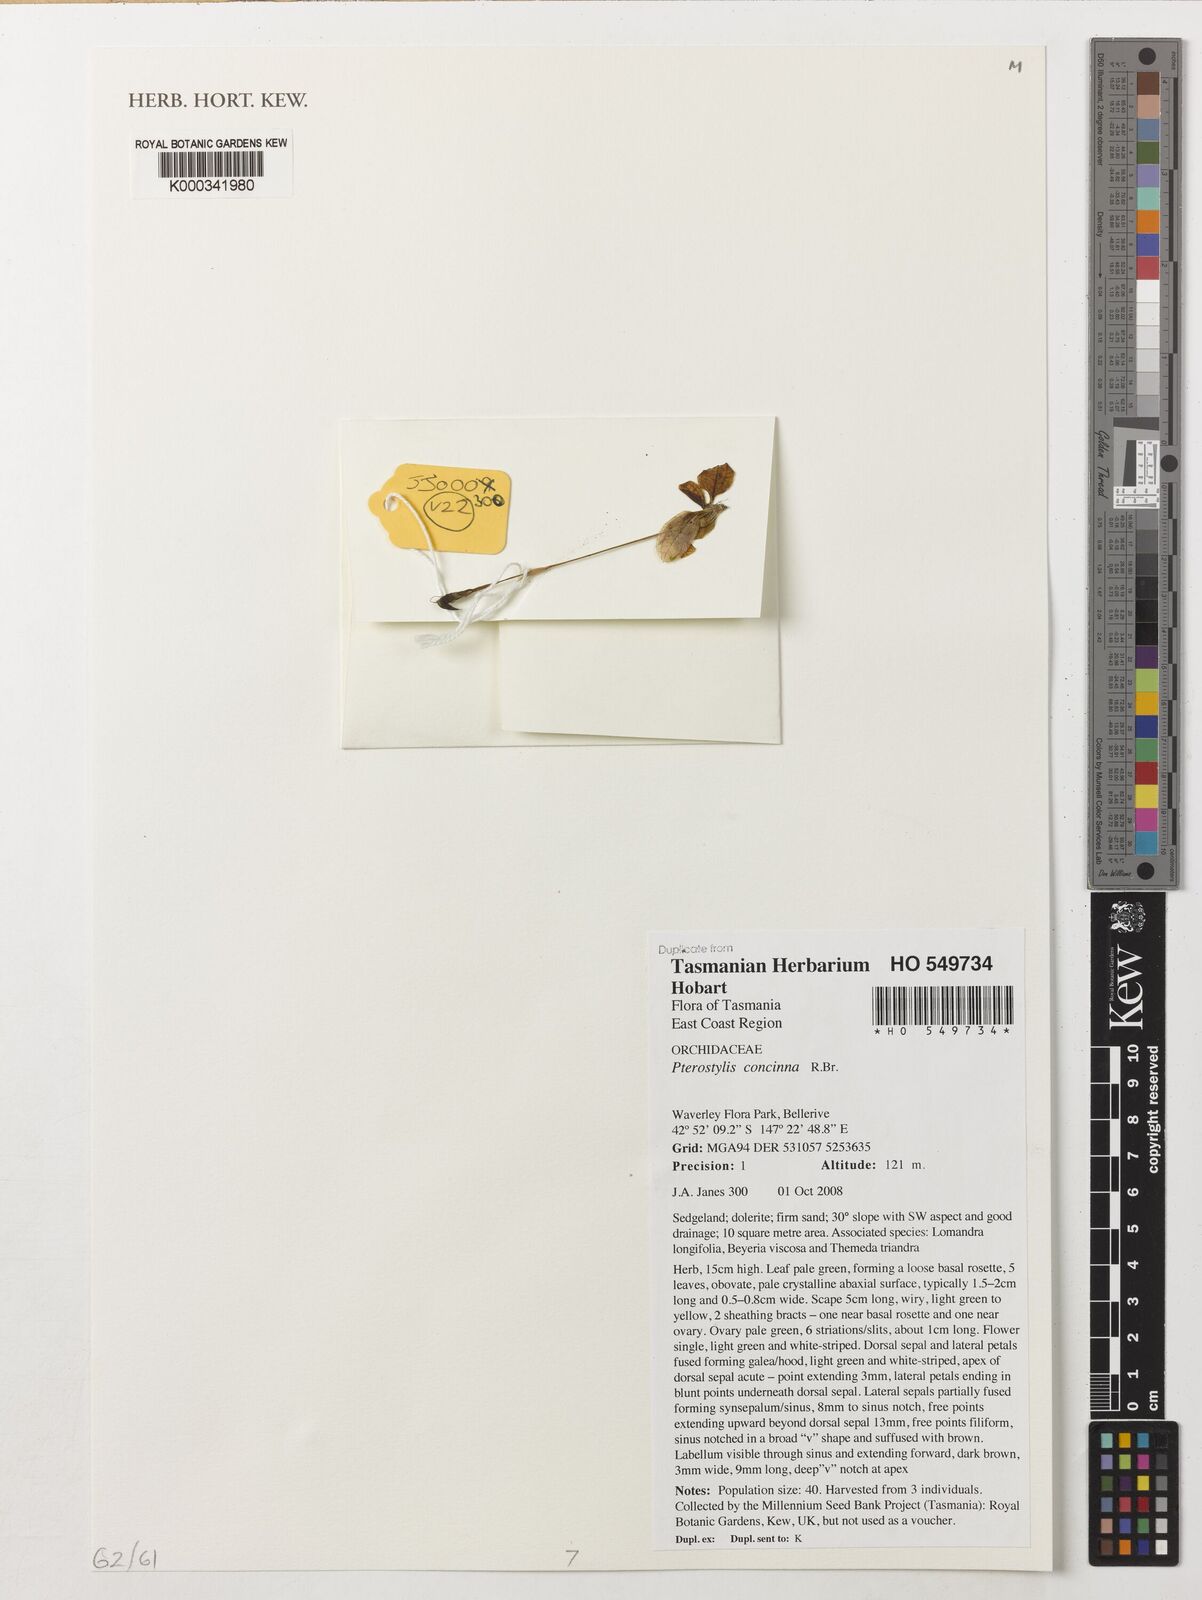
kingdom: Plantae
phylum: Tracheophyta
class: Liliopsida
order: Asparagales
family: Orchidaceae
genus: Pterostylis
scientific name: Pterostylis concinna
